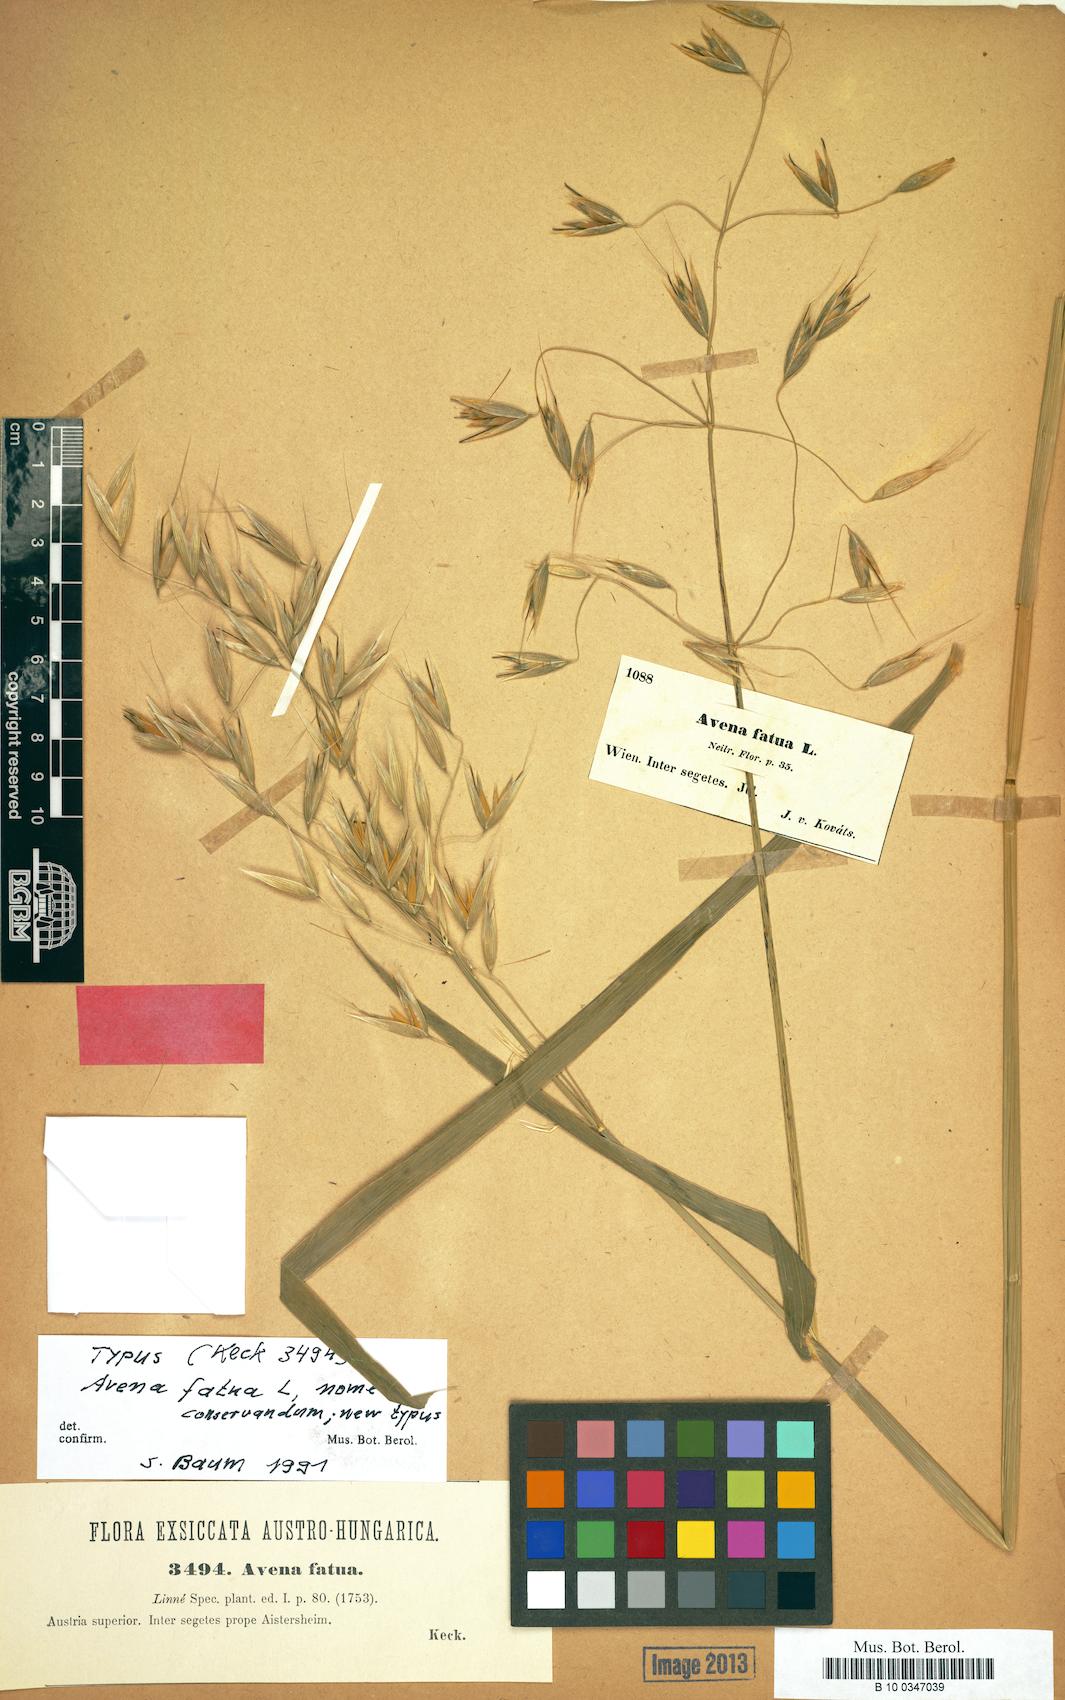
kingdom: Plantae
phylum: Tracheophyta
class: Liliopsida
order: Poales
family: Poaceae
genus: Avena
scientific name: Avena fatua
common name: Wild oat
